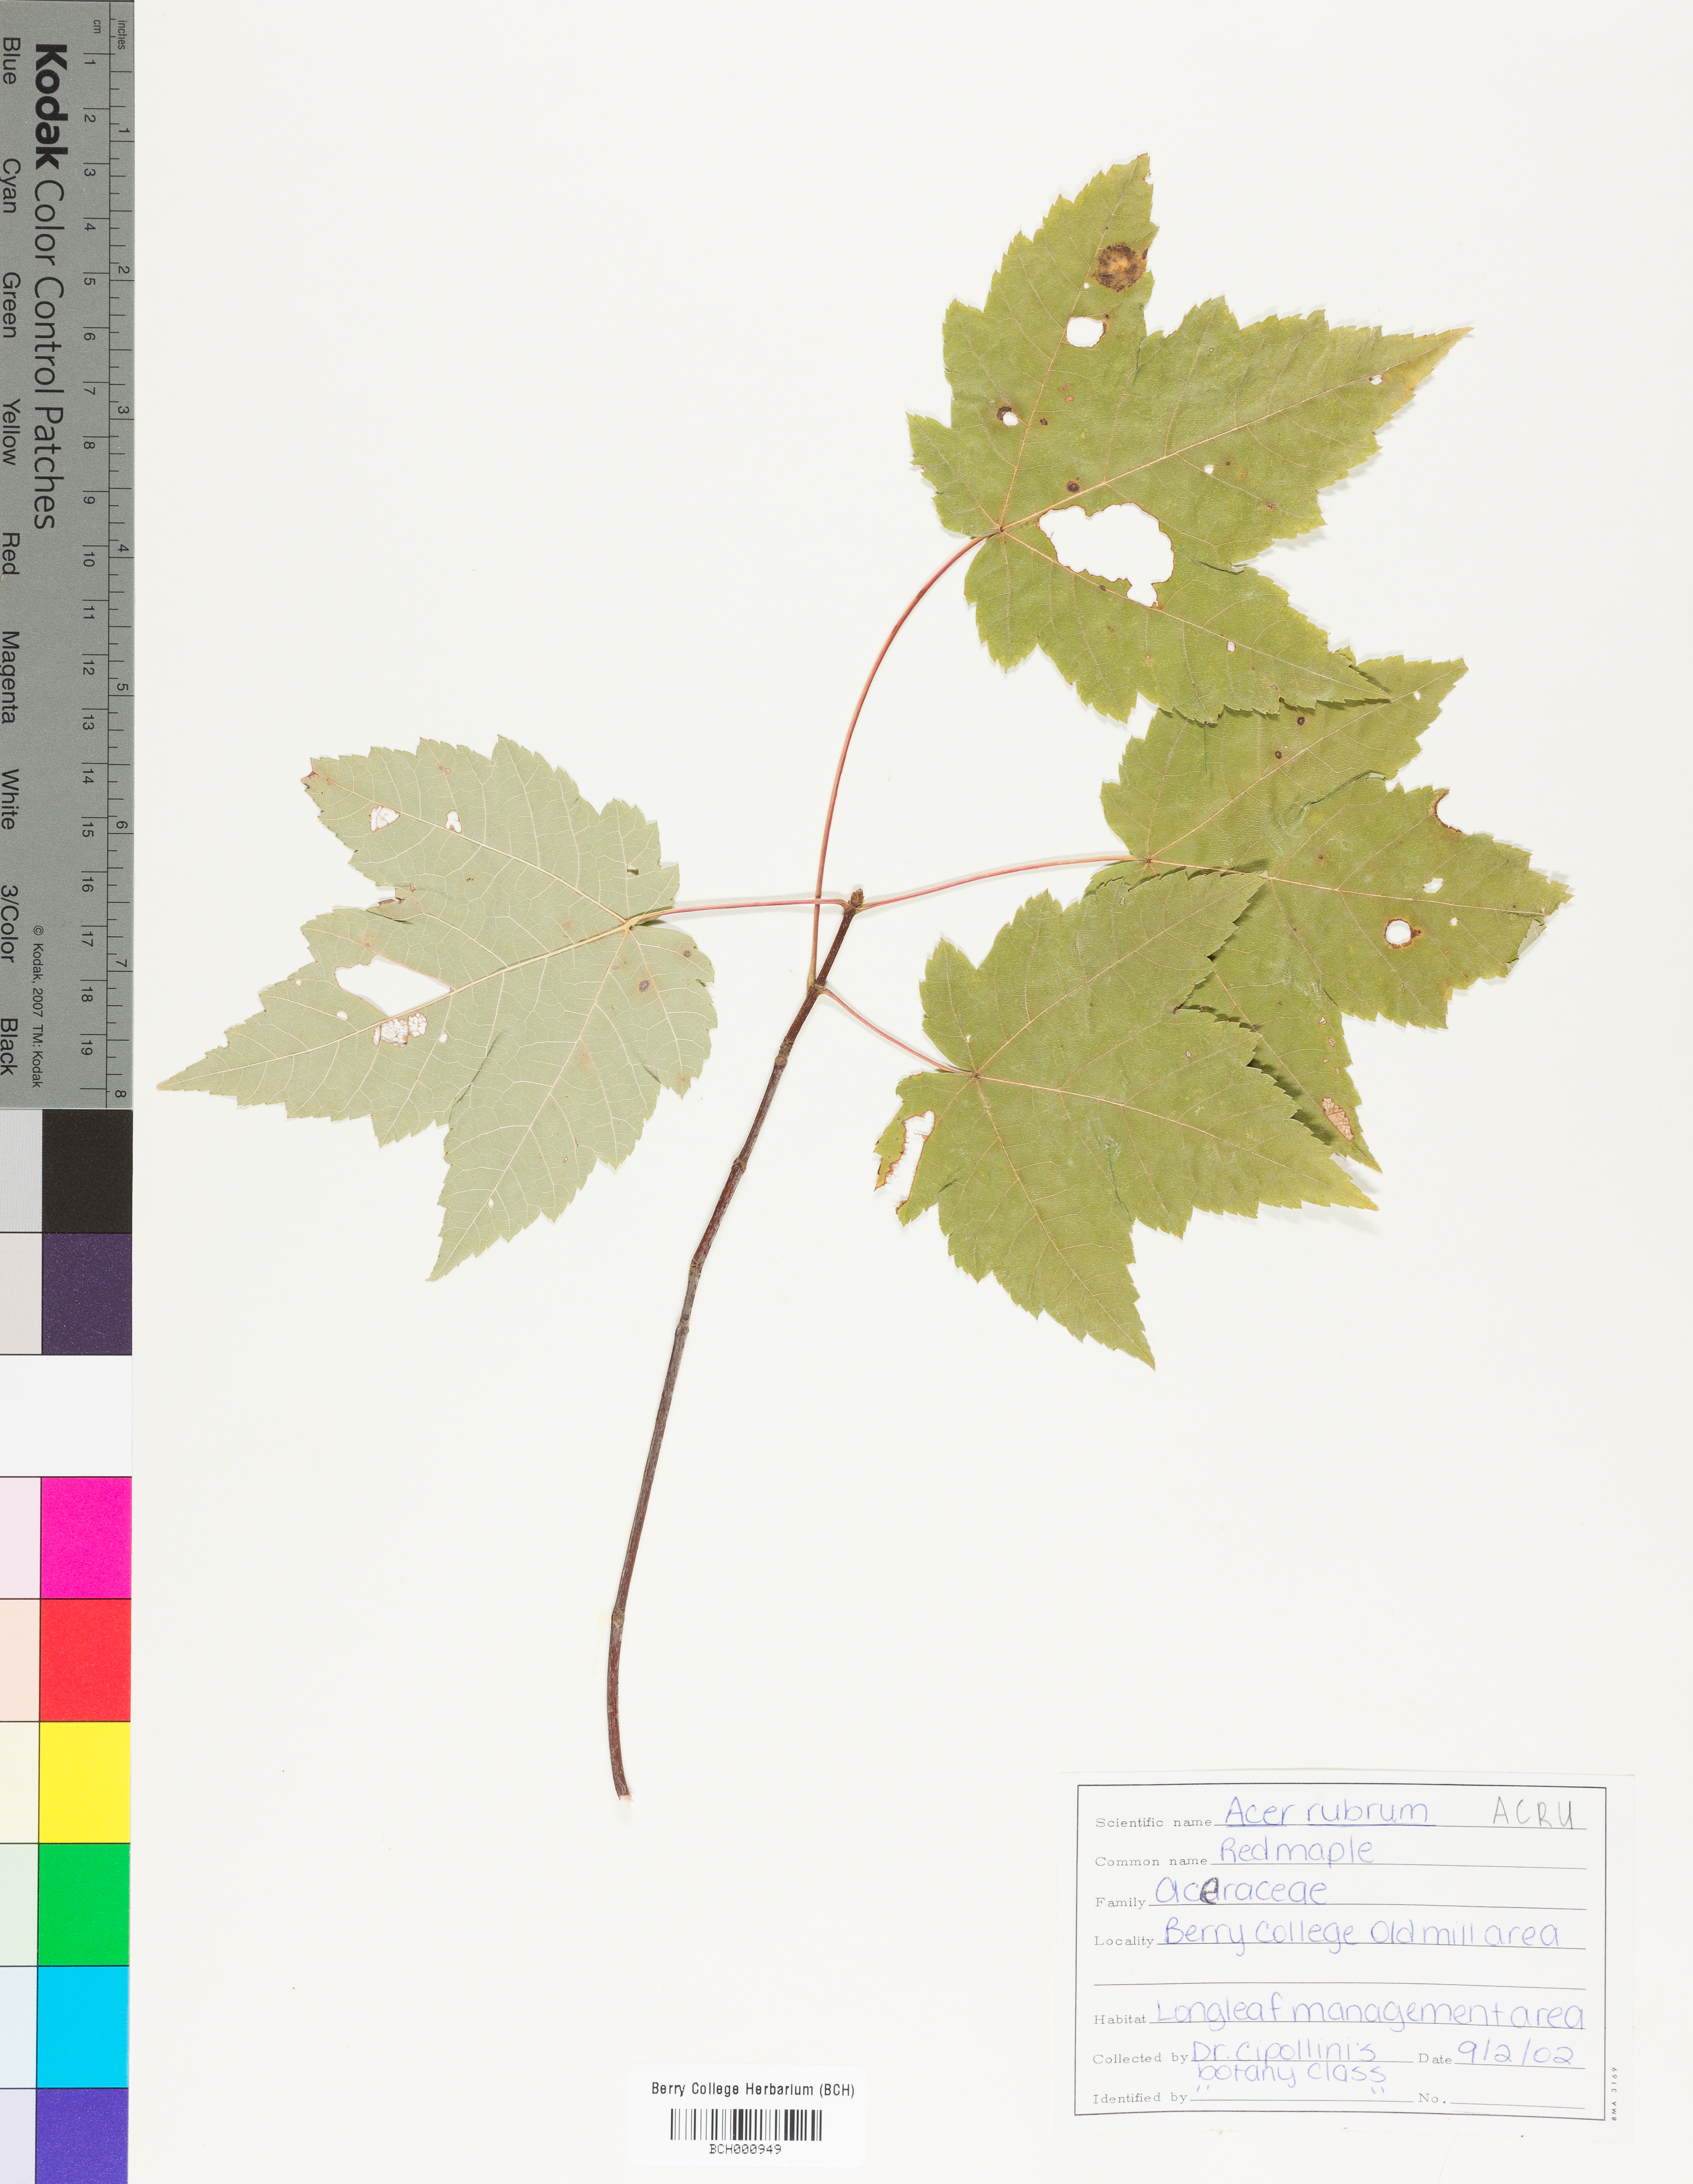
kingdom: Plantae
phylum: Tracheophyta
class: Magnoliopsida
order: Sapindales
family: Sapindaceae
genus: Acer
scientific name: Acer rubrum
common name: Red maple
